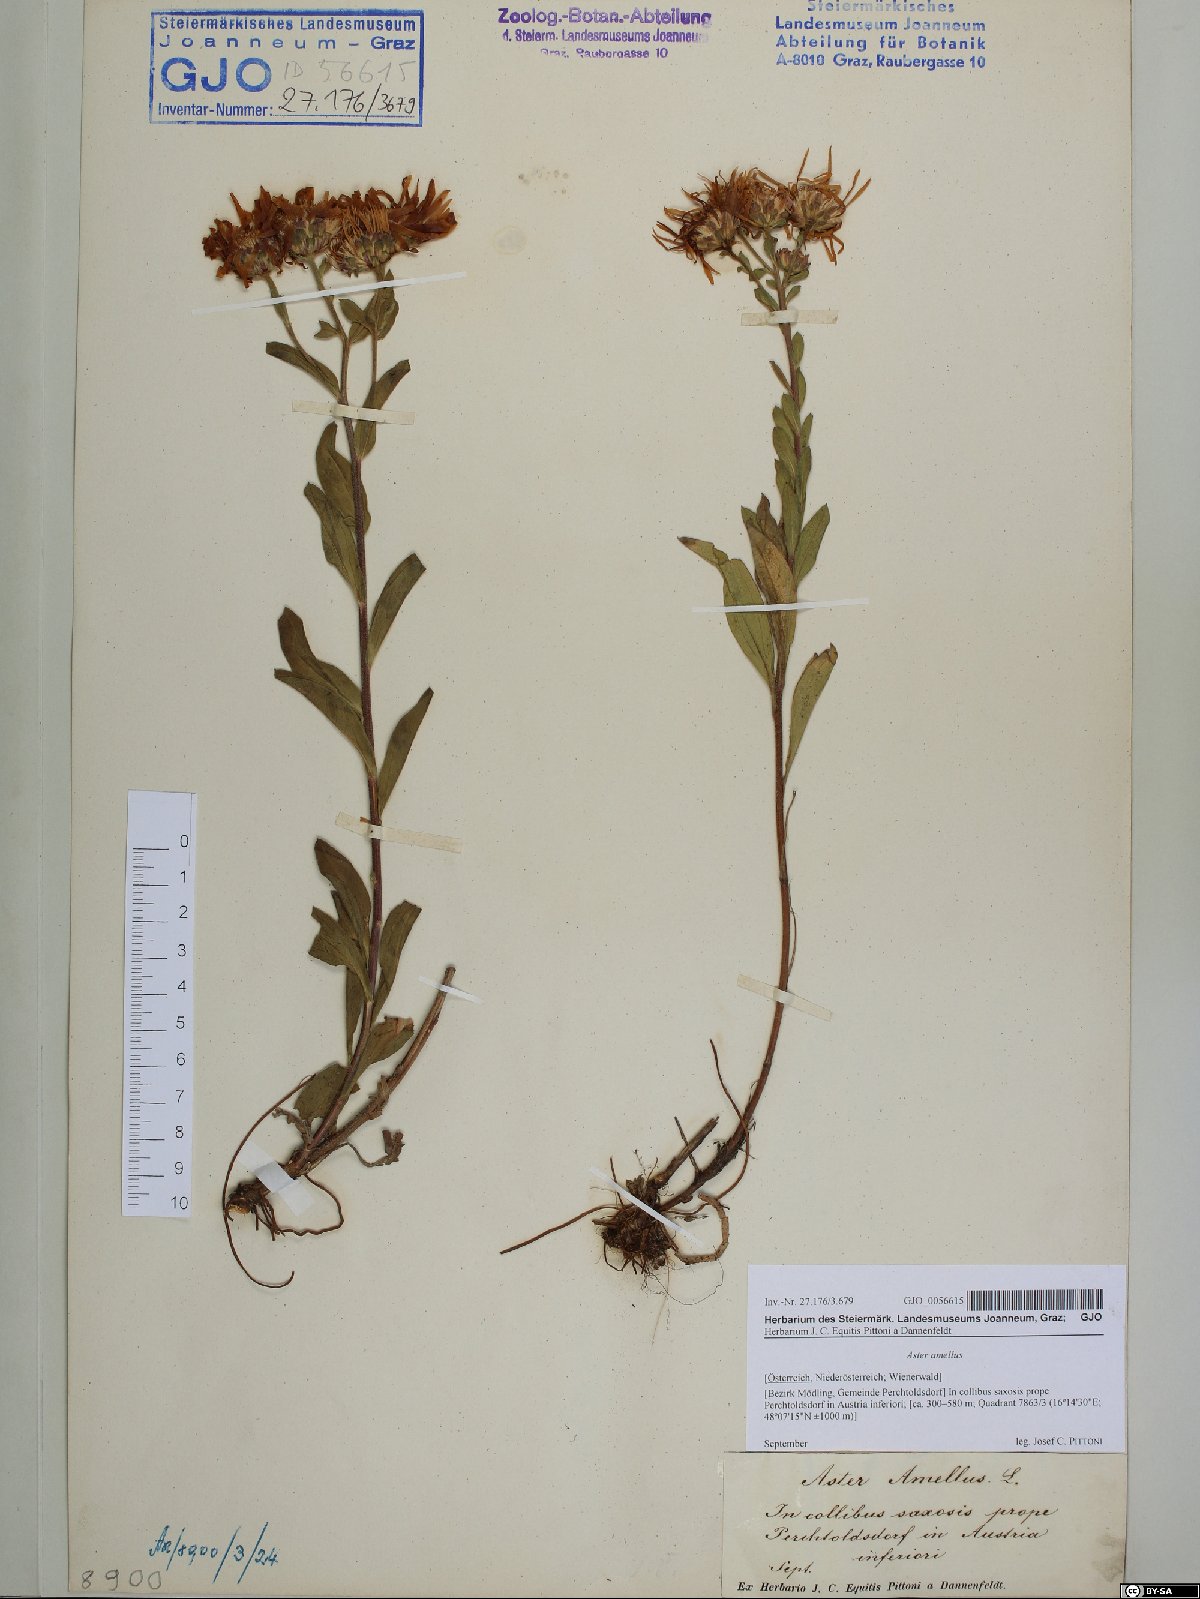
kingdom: Plantae
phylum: Tracheophyta
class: Magnoliopsida
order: Asterales
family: Asteraceae
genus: Aster
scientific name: Aster amellus
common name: European michaelmas daisy
